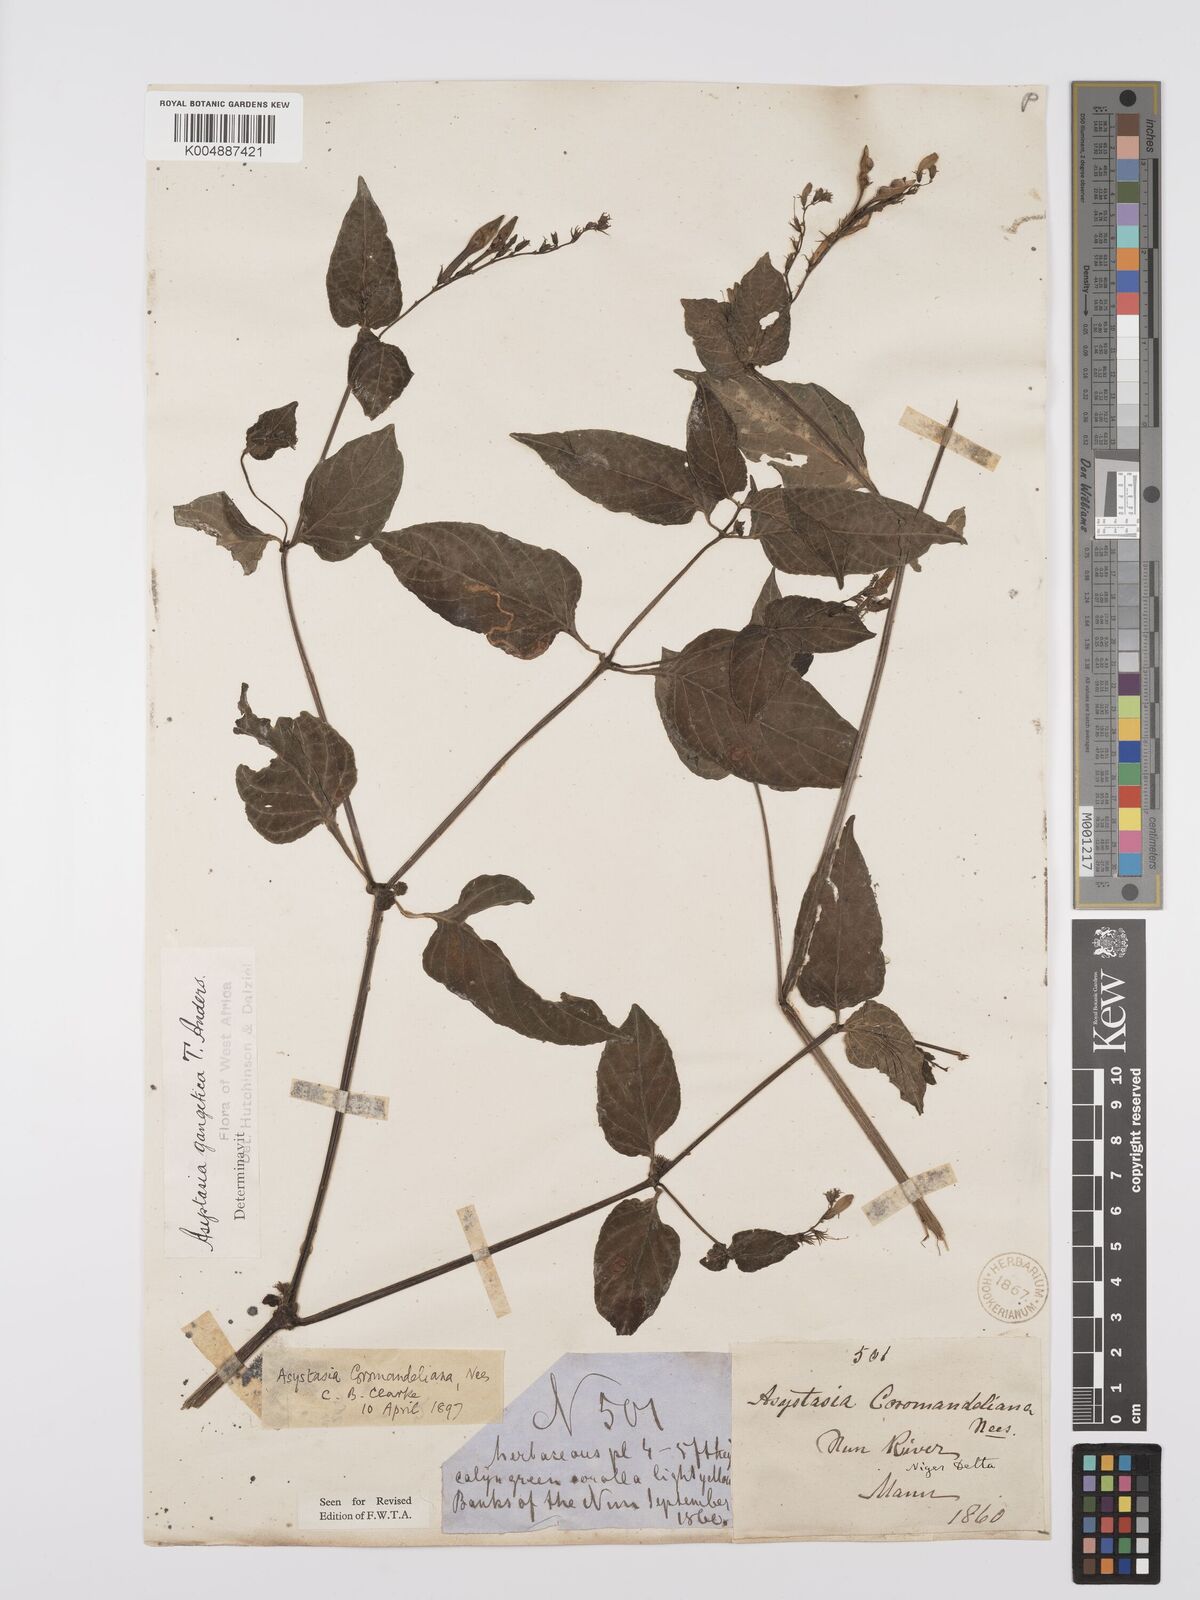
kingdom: Plantae
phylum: Tracheophyta
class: Magnoliopsida
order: Lamiales
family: Acanthaceae
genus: Asystasia
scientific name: Asystasia gangetica
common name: Chinese violet
